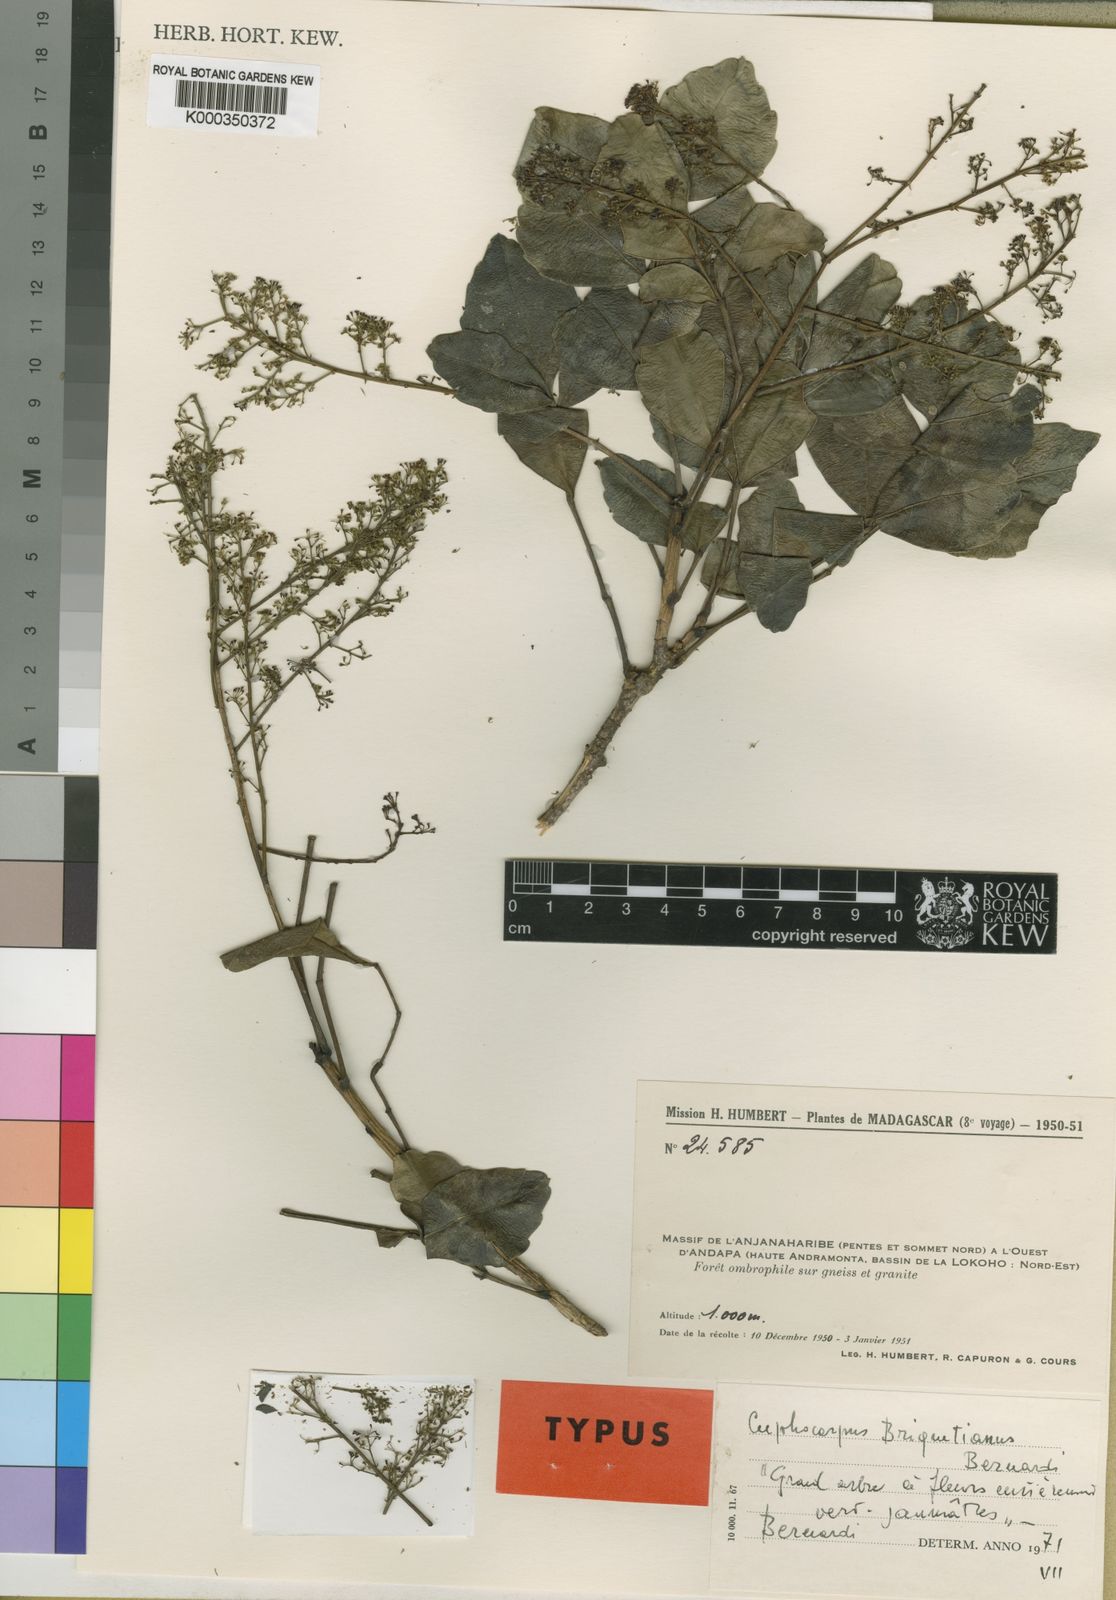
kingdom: Plantae
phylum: Tracheophyta
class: Magnoliopsida
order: Apiales
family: Araliaceae
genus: Polyscias
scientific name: Polyscias briquetiana
